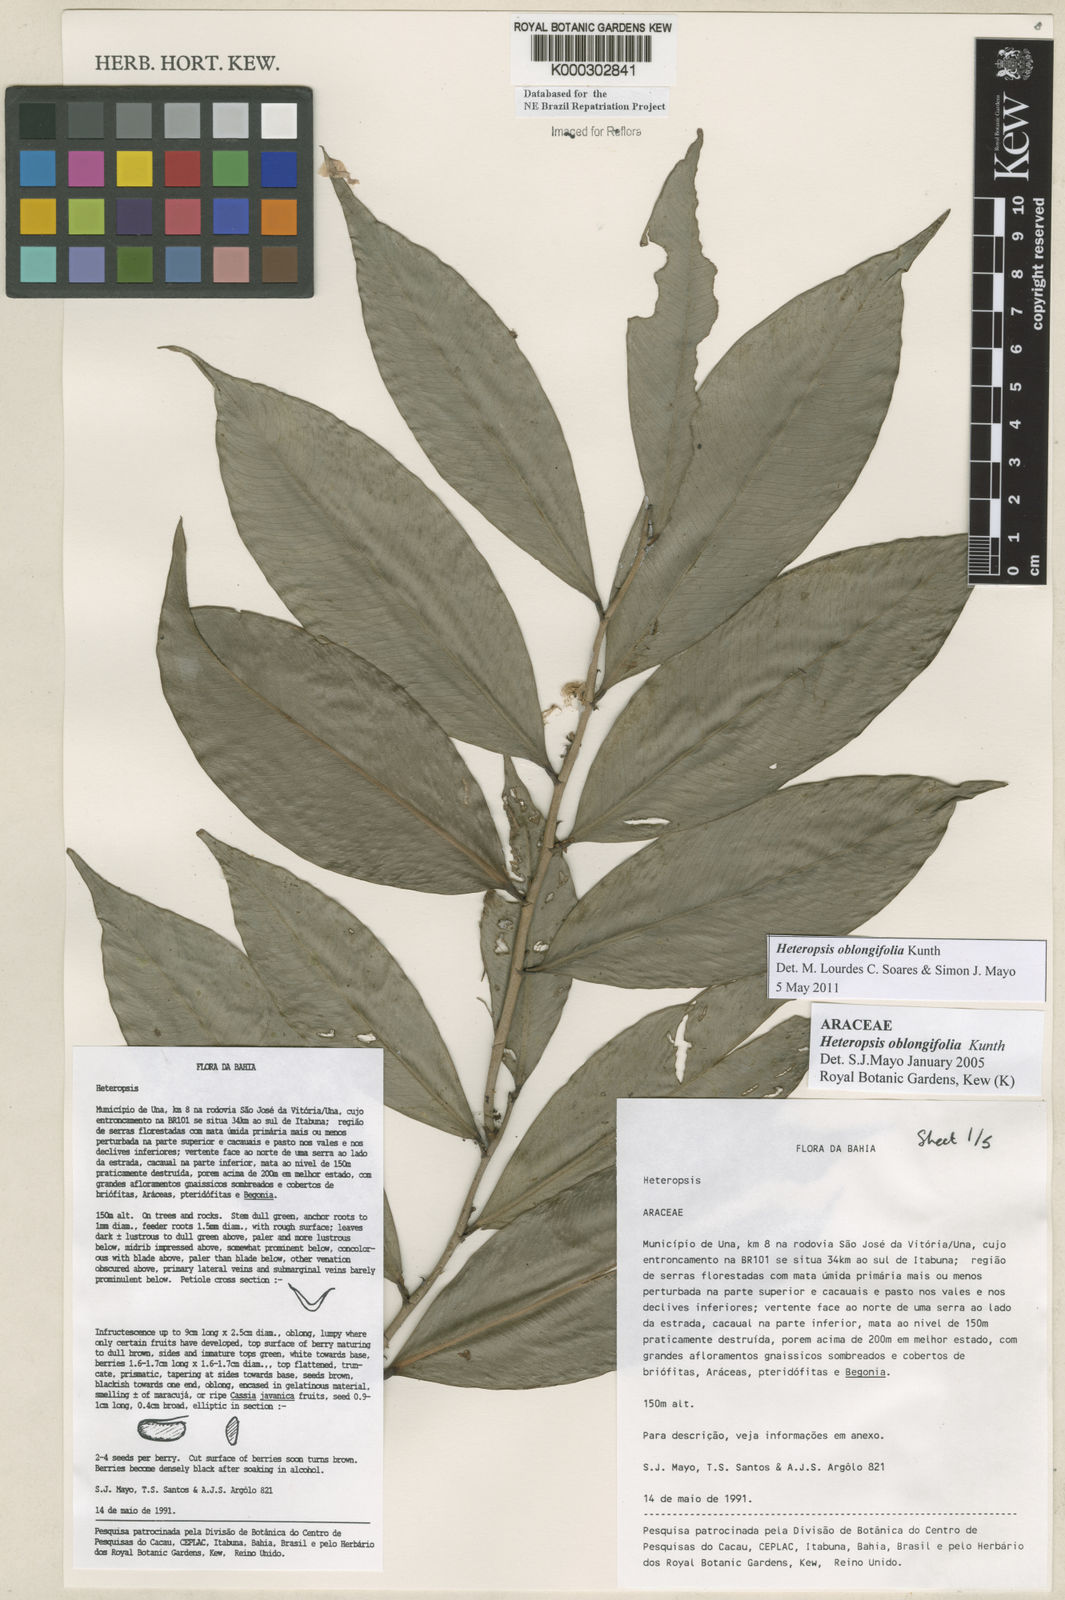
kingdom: Plantae
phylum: Tracheophyta
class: Liliopsida
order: Alismatales
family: Araceae
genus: Heteropsis
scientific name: Heteropsis oblongifolia
